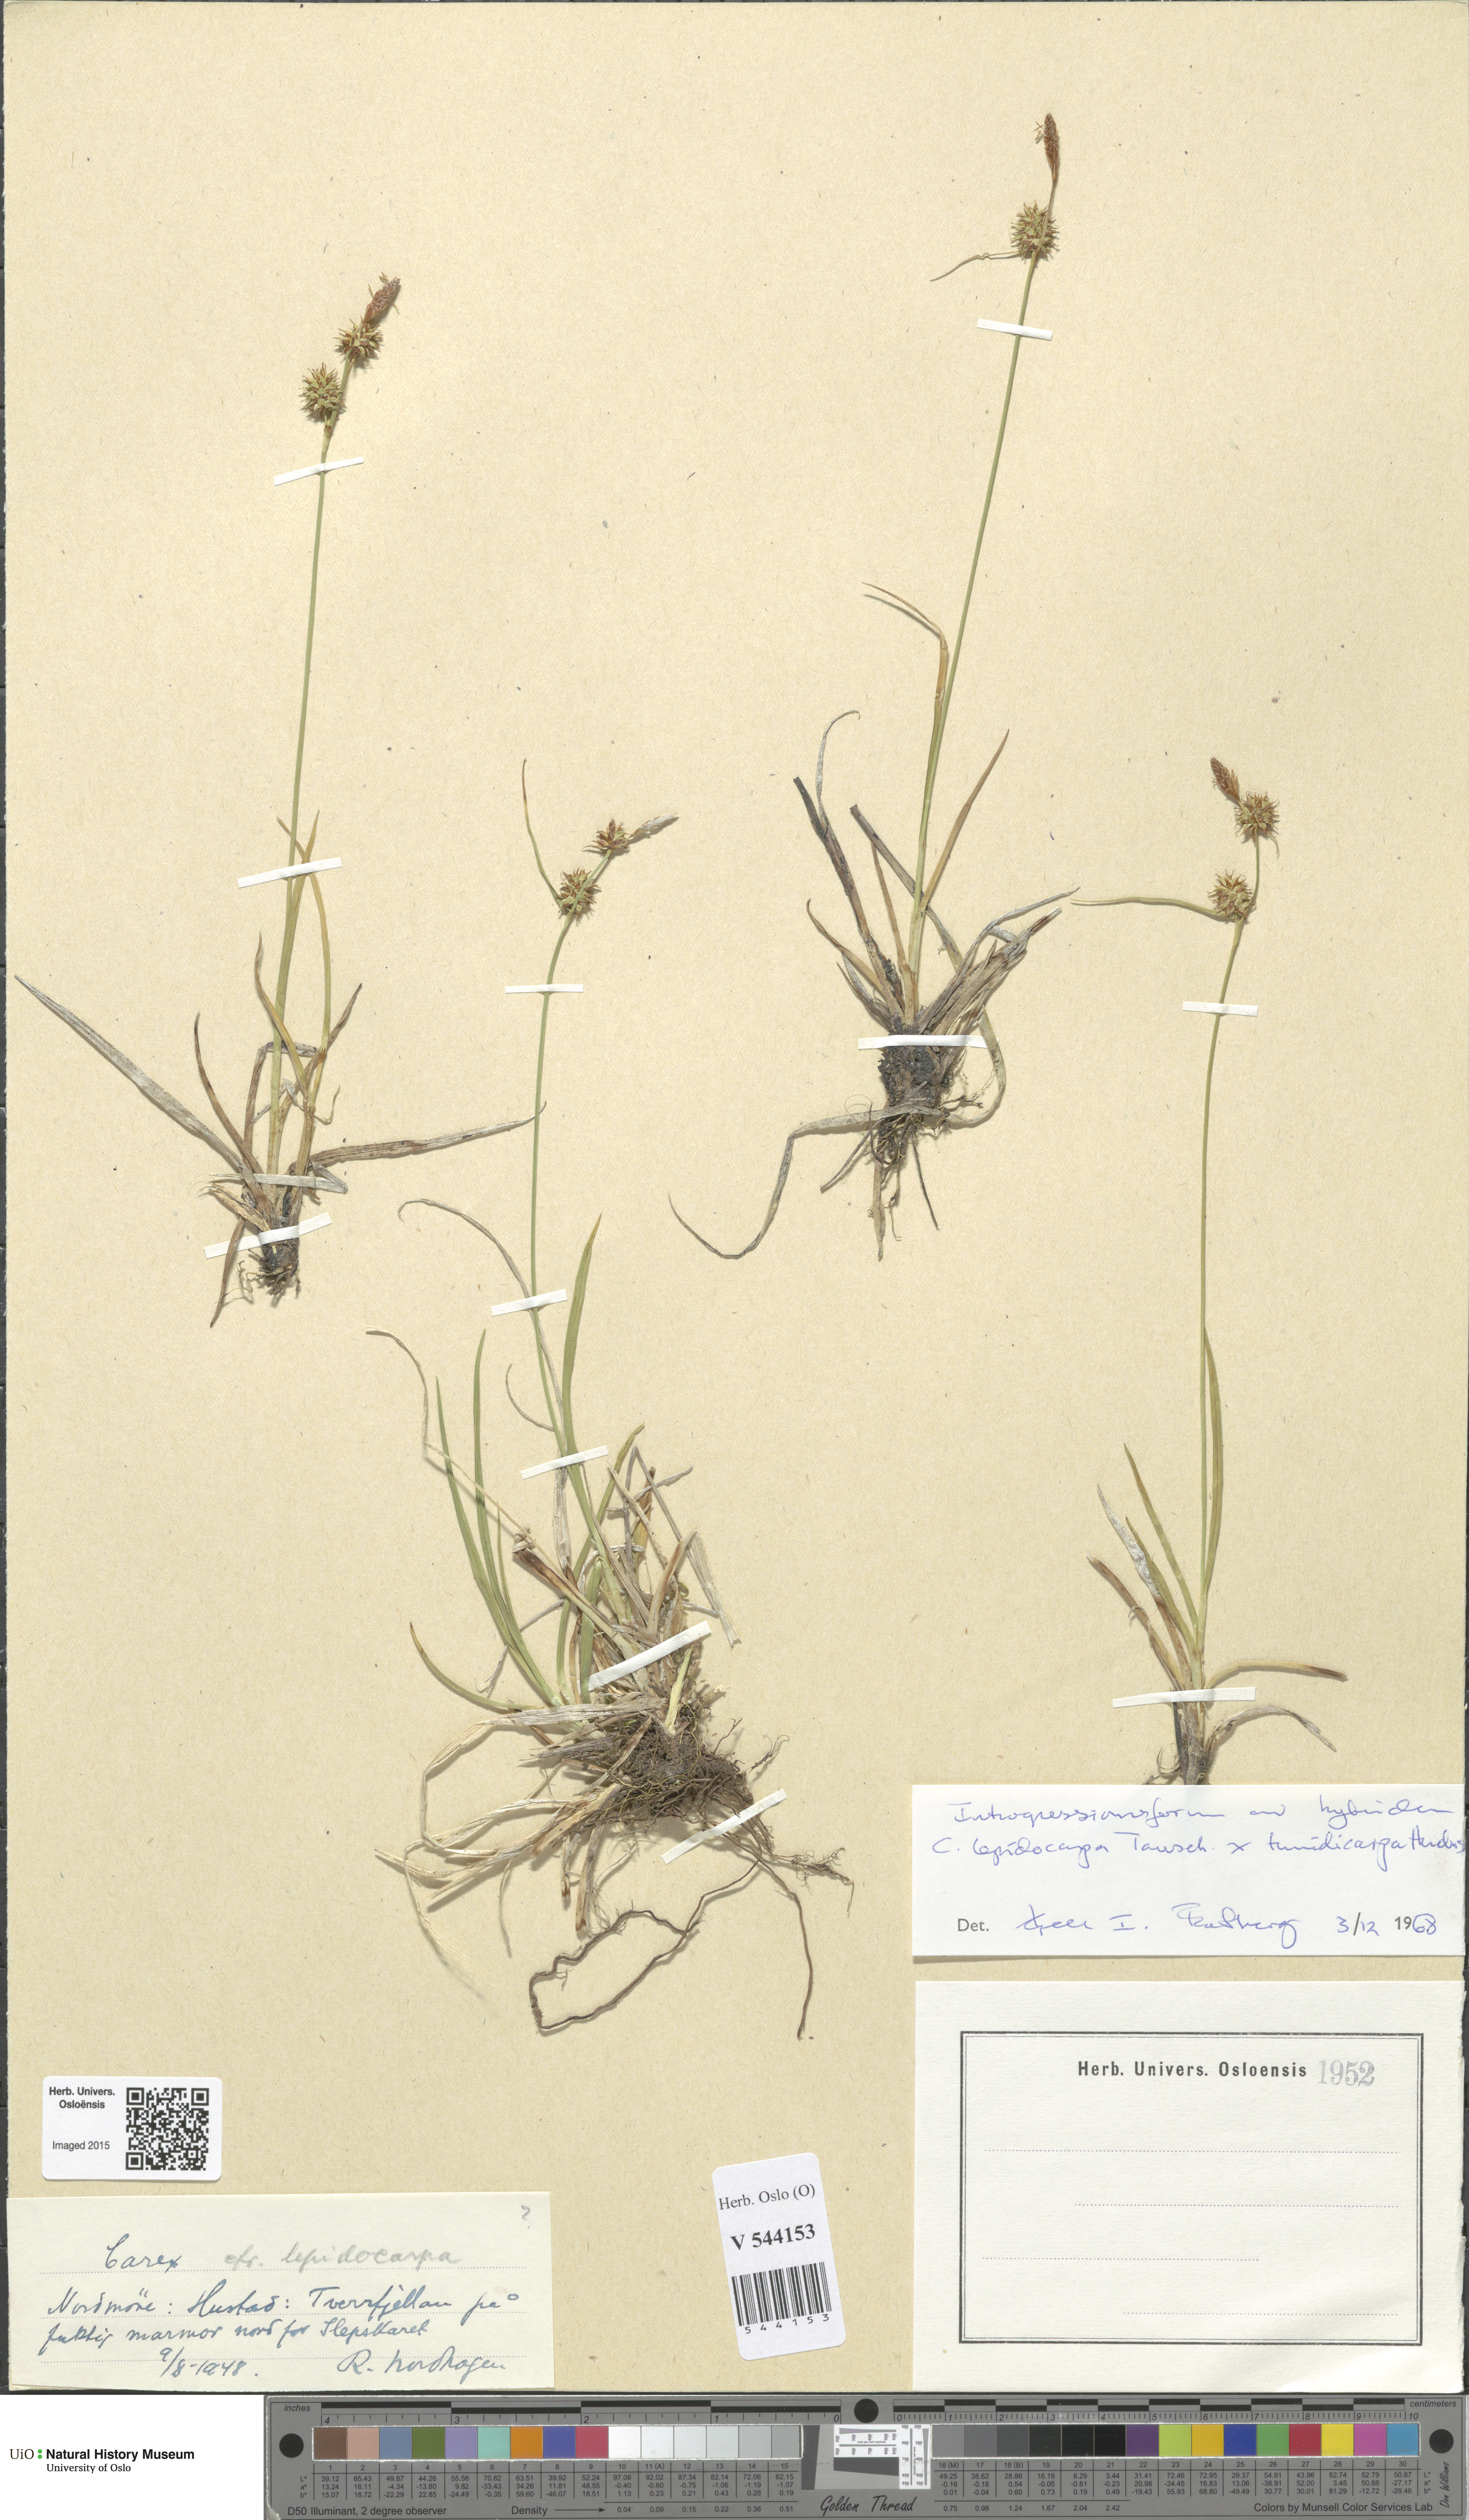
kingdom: Plantae
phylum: Tracheophyta
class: Liliopsida
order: Poales
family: Cyperaceae
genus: Carex
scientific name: Carex
